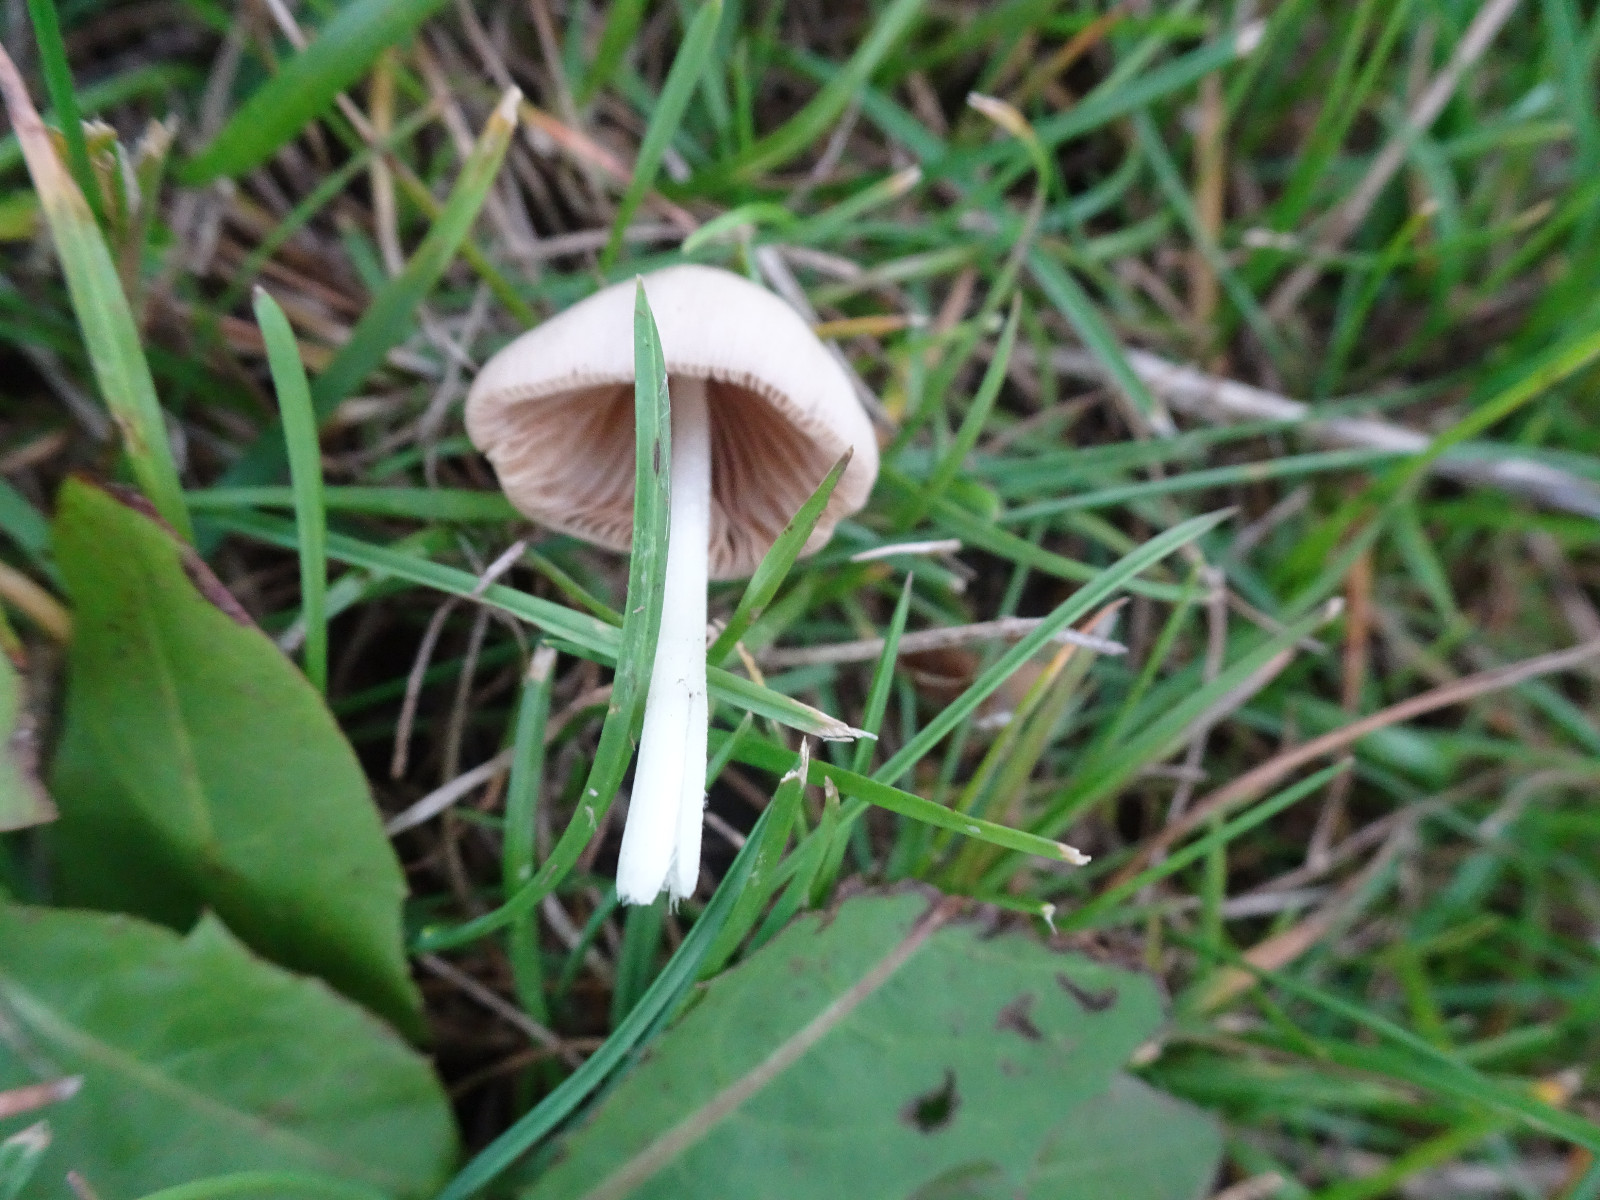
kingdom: Fungi
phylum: Basidiomycota
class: Agaricomycetes
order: Agaricales
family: Bolbitiaceae
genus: Conocybe
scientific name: Conocybe apala
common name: mælkehvid keglehat
